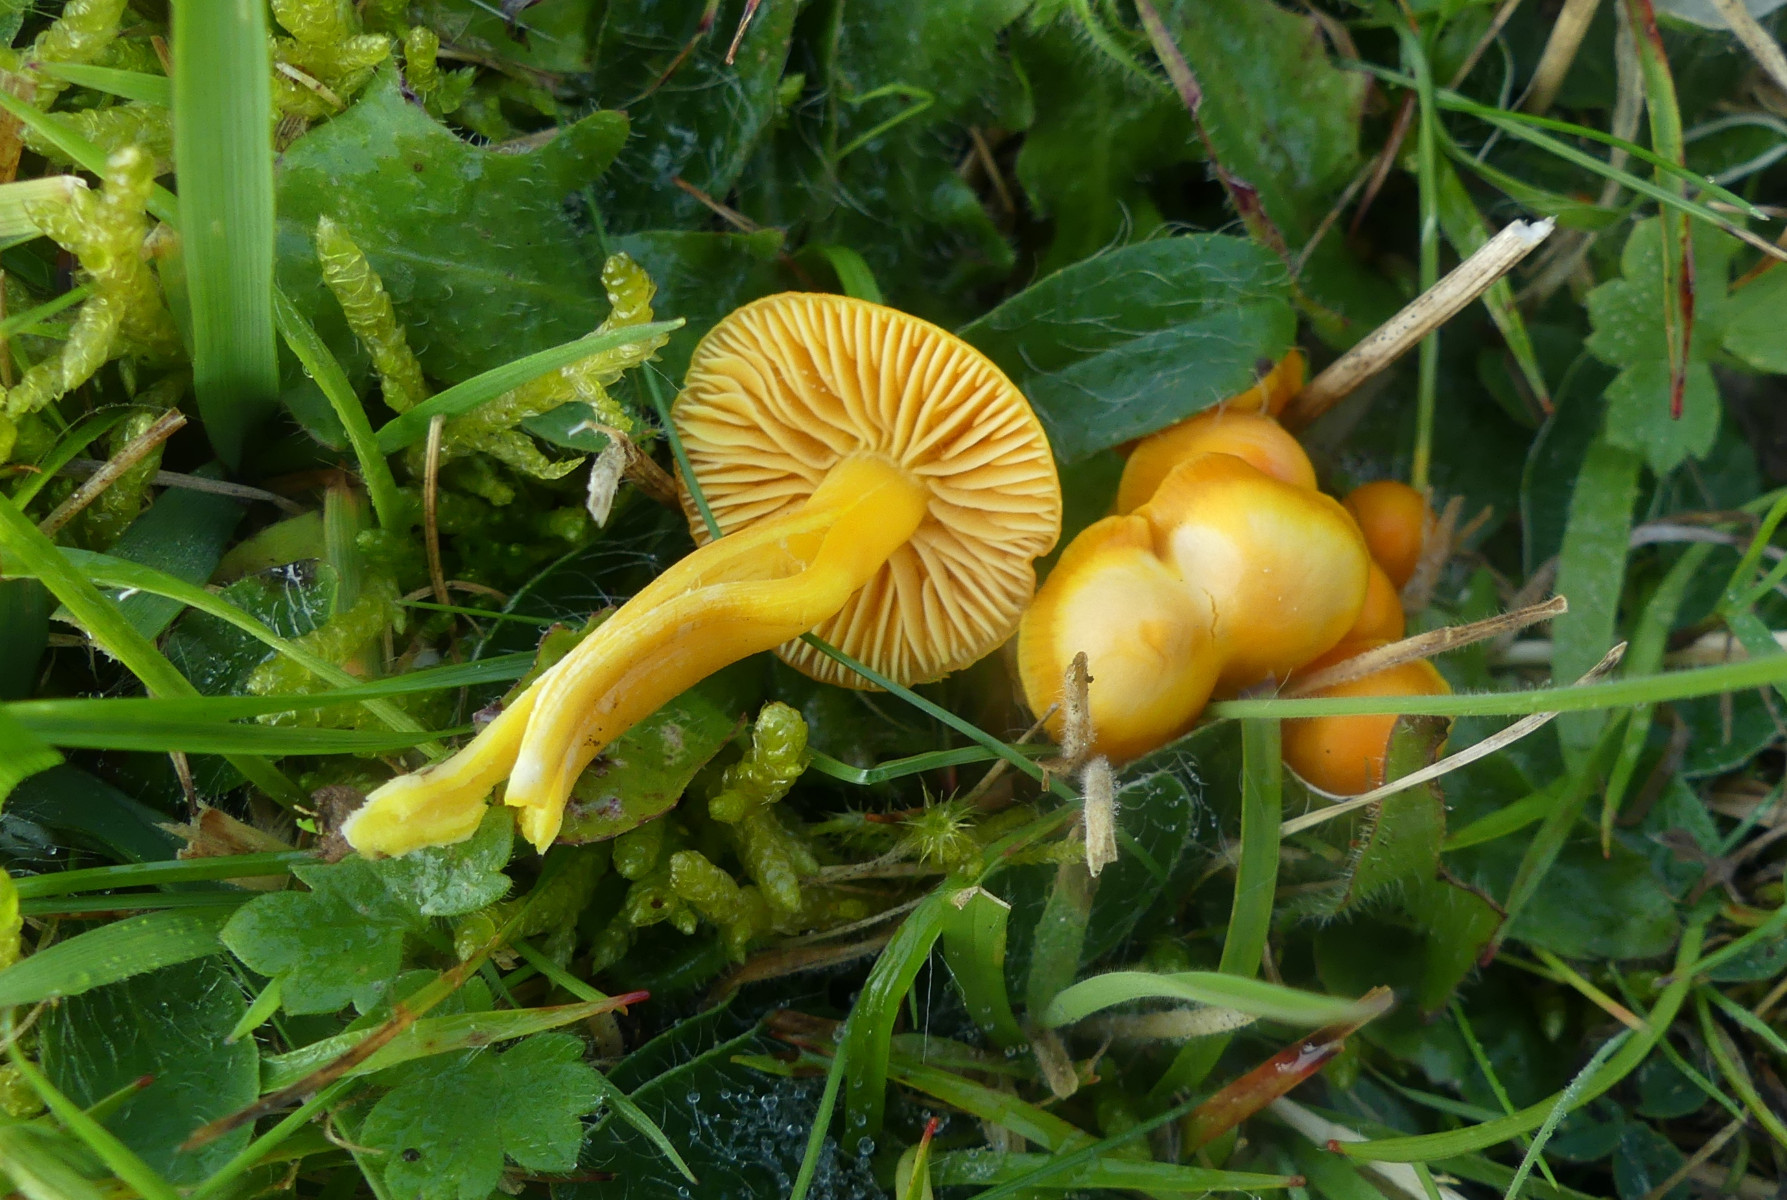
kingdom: Fungi
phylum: Basidiomycota
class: Agaricomycetes
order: Agaricales
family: Hygrophoraceae
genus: Hygrocybe
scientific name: Hygrocybe ceracea
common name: voksgul vokshat
